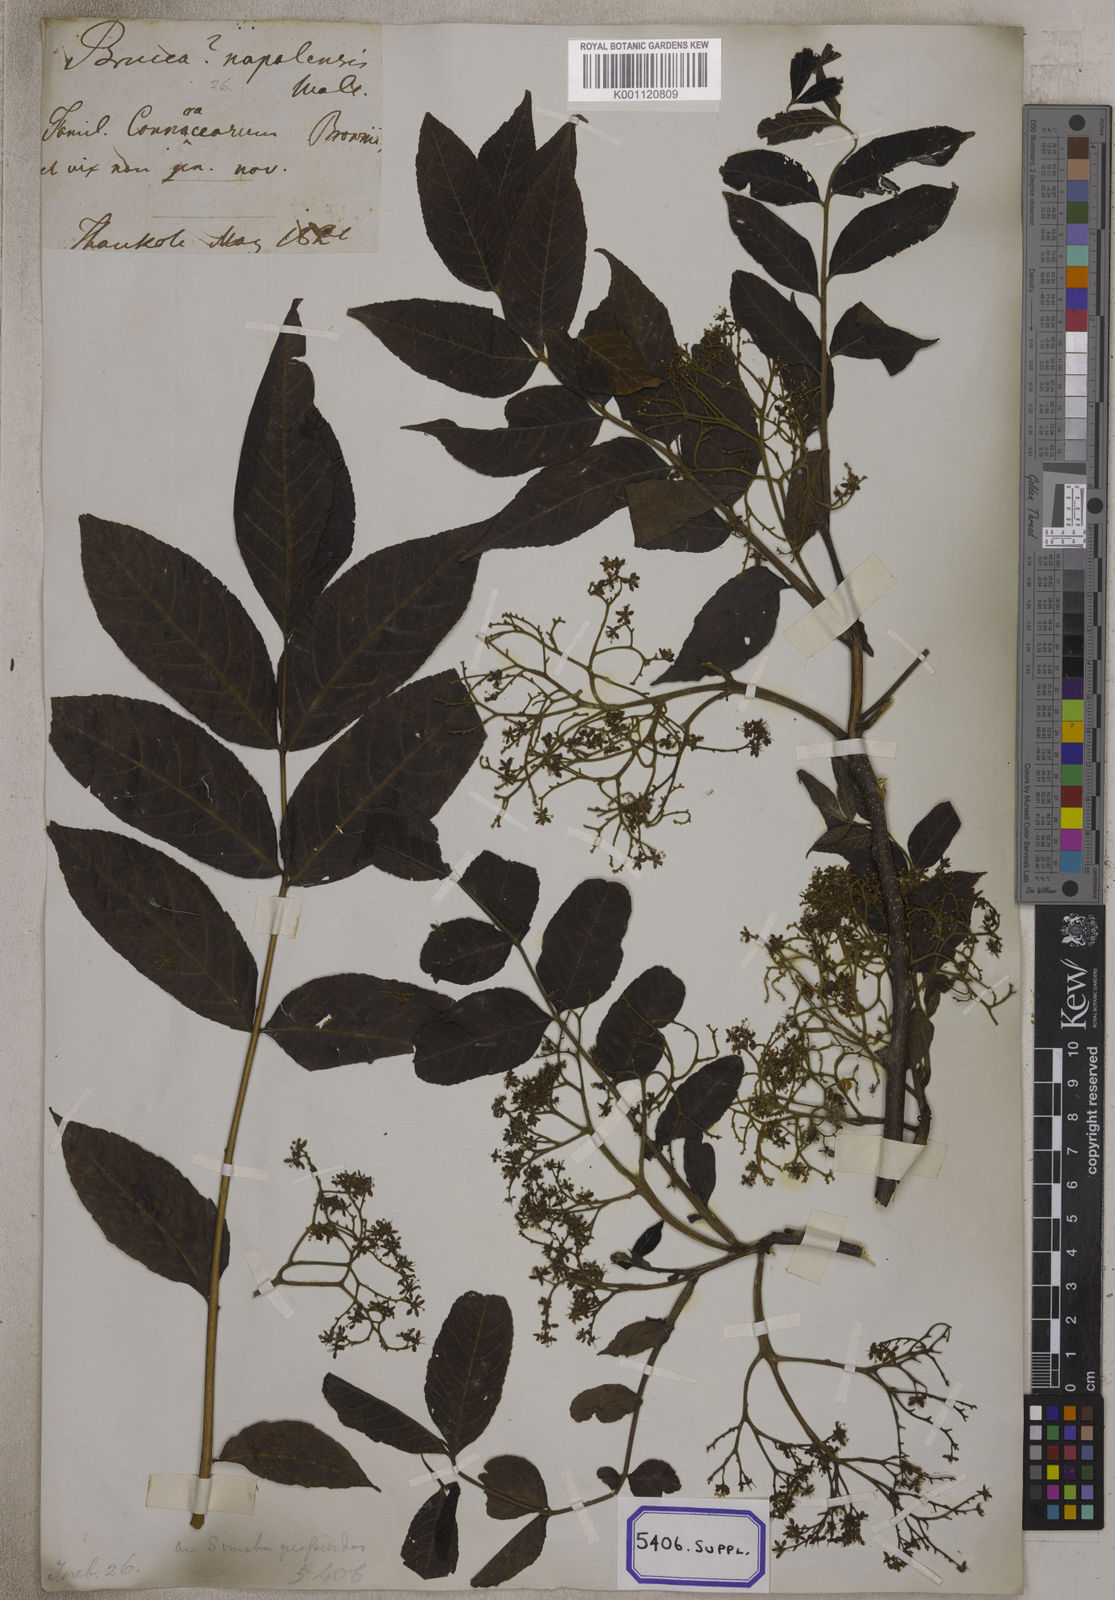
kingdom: Plantae
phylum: Tracheophyta
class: Magnoliopsida
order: Fabales
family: Fabaceae
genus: Crotalaria
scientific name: Crotalaria spectabilis
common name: Showy rattlebox
